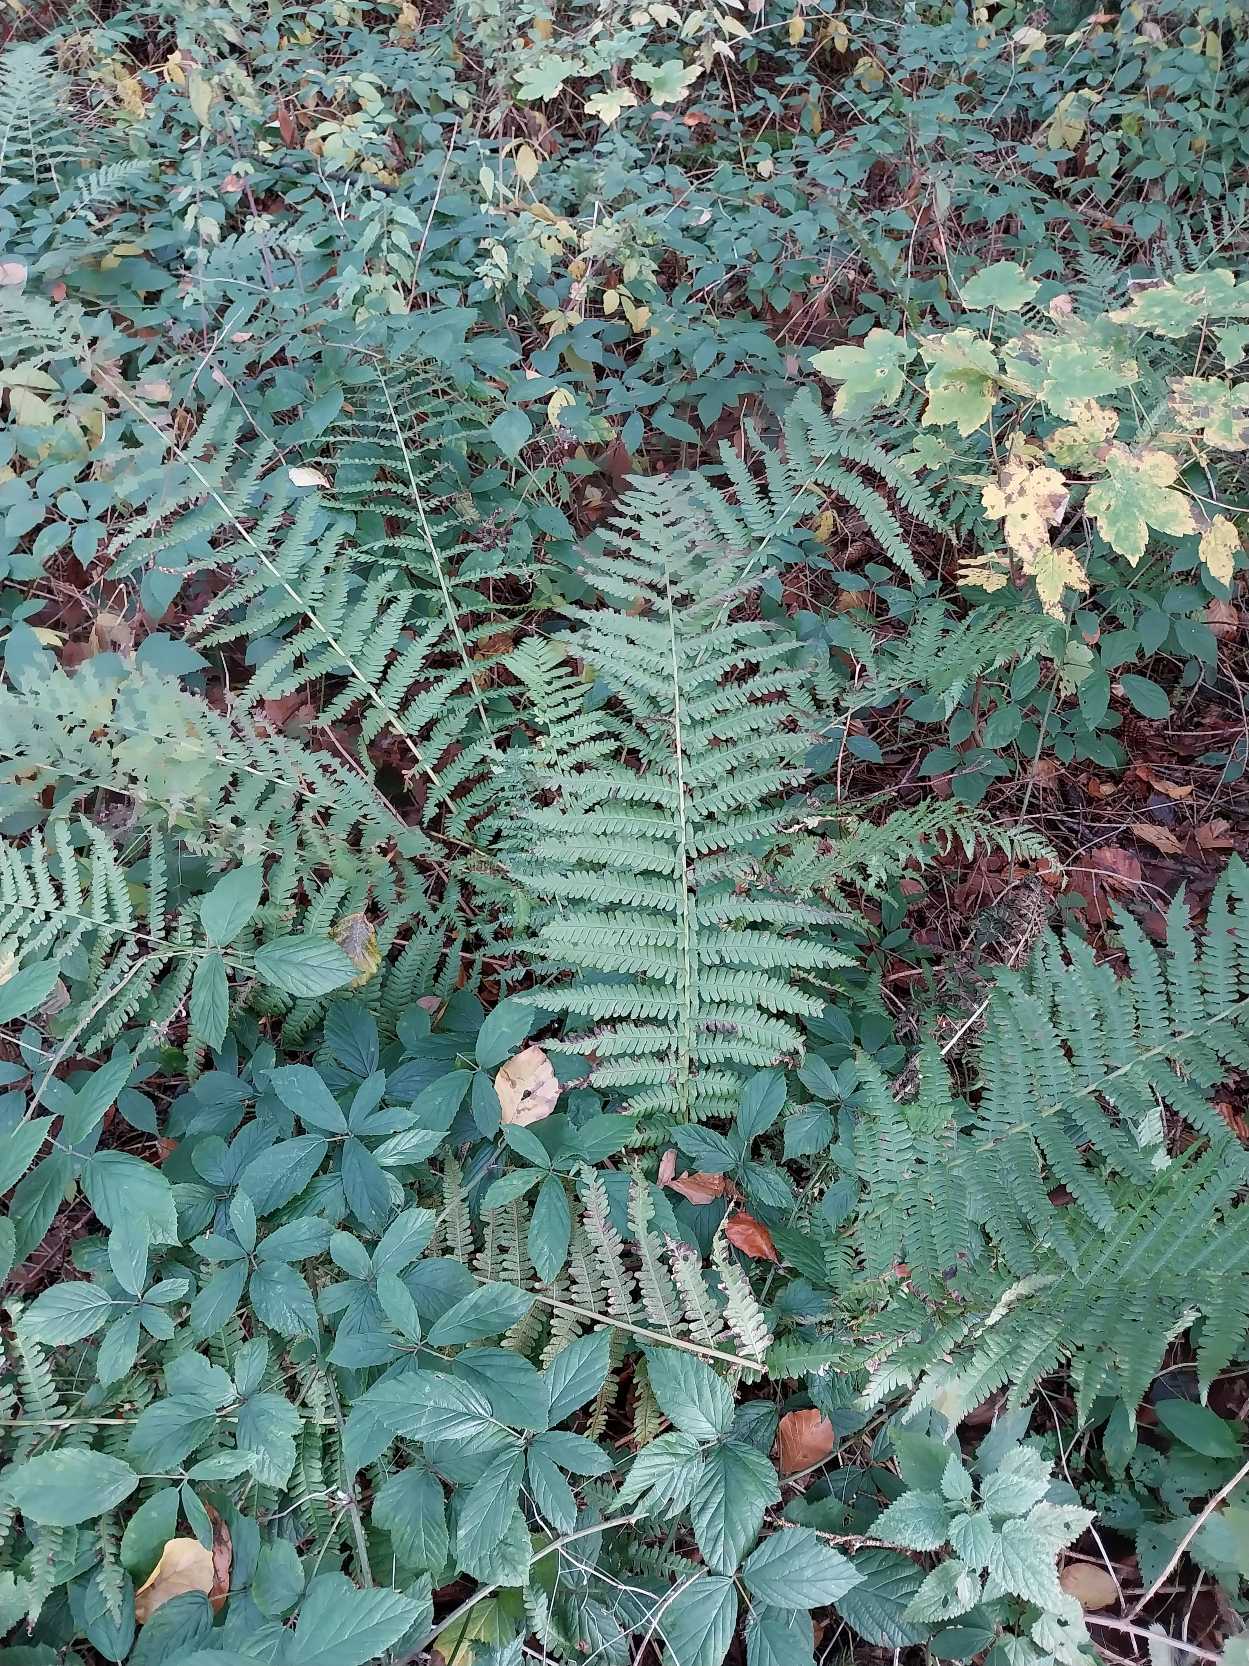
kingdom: Plantae
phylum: Tracheophyta
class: Polypodiopsida
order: Polypodiales
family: Dryopteridaceae
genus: Dryopteris
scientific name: Dryopteris filix-mas
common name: Almindelig mangeløv
